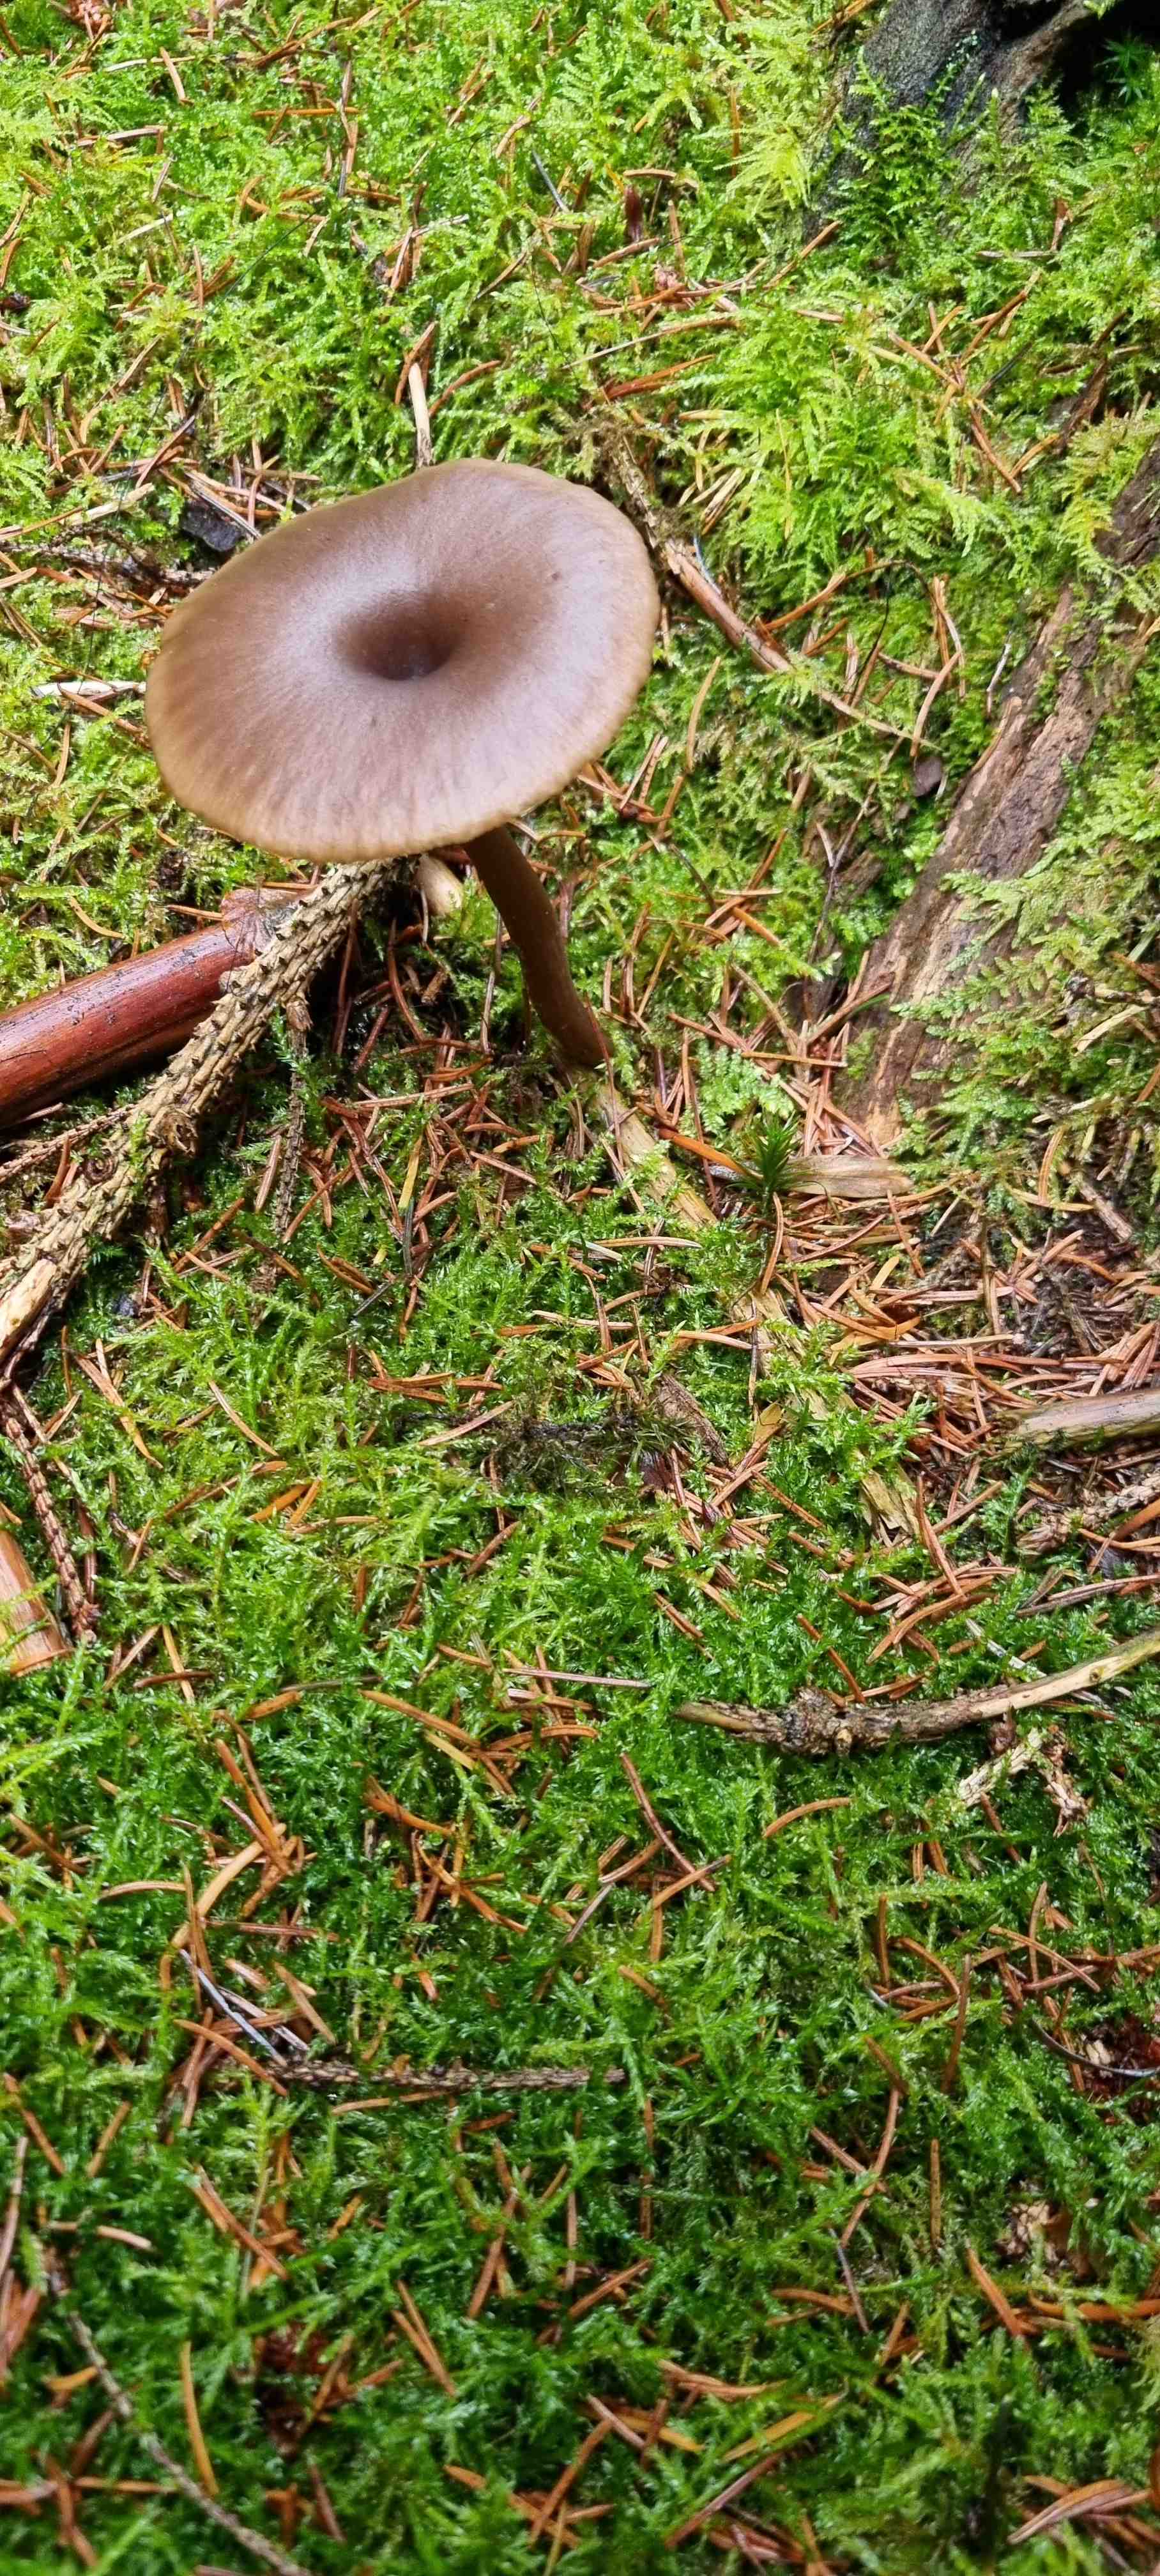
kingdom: Fungi
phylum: Basidiomycota
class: Agaricomycetes
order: Agaricales
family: Pseudoclitocybaceae
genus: Pseudoclitocybe
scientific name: Pseudoclitocybe cyathiformis
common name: almindelig bægertragthat
